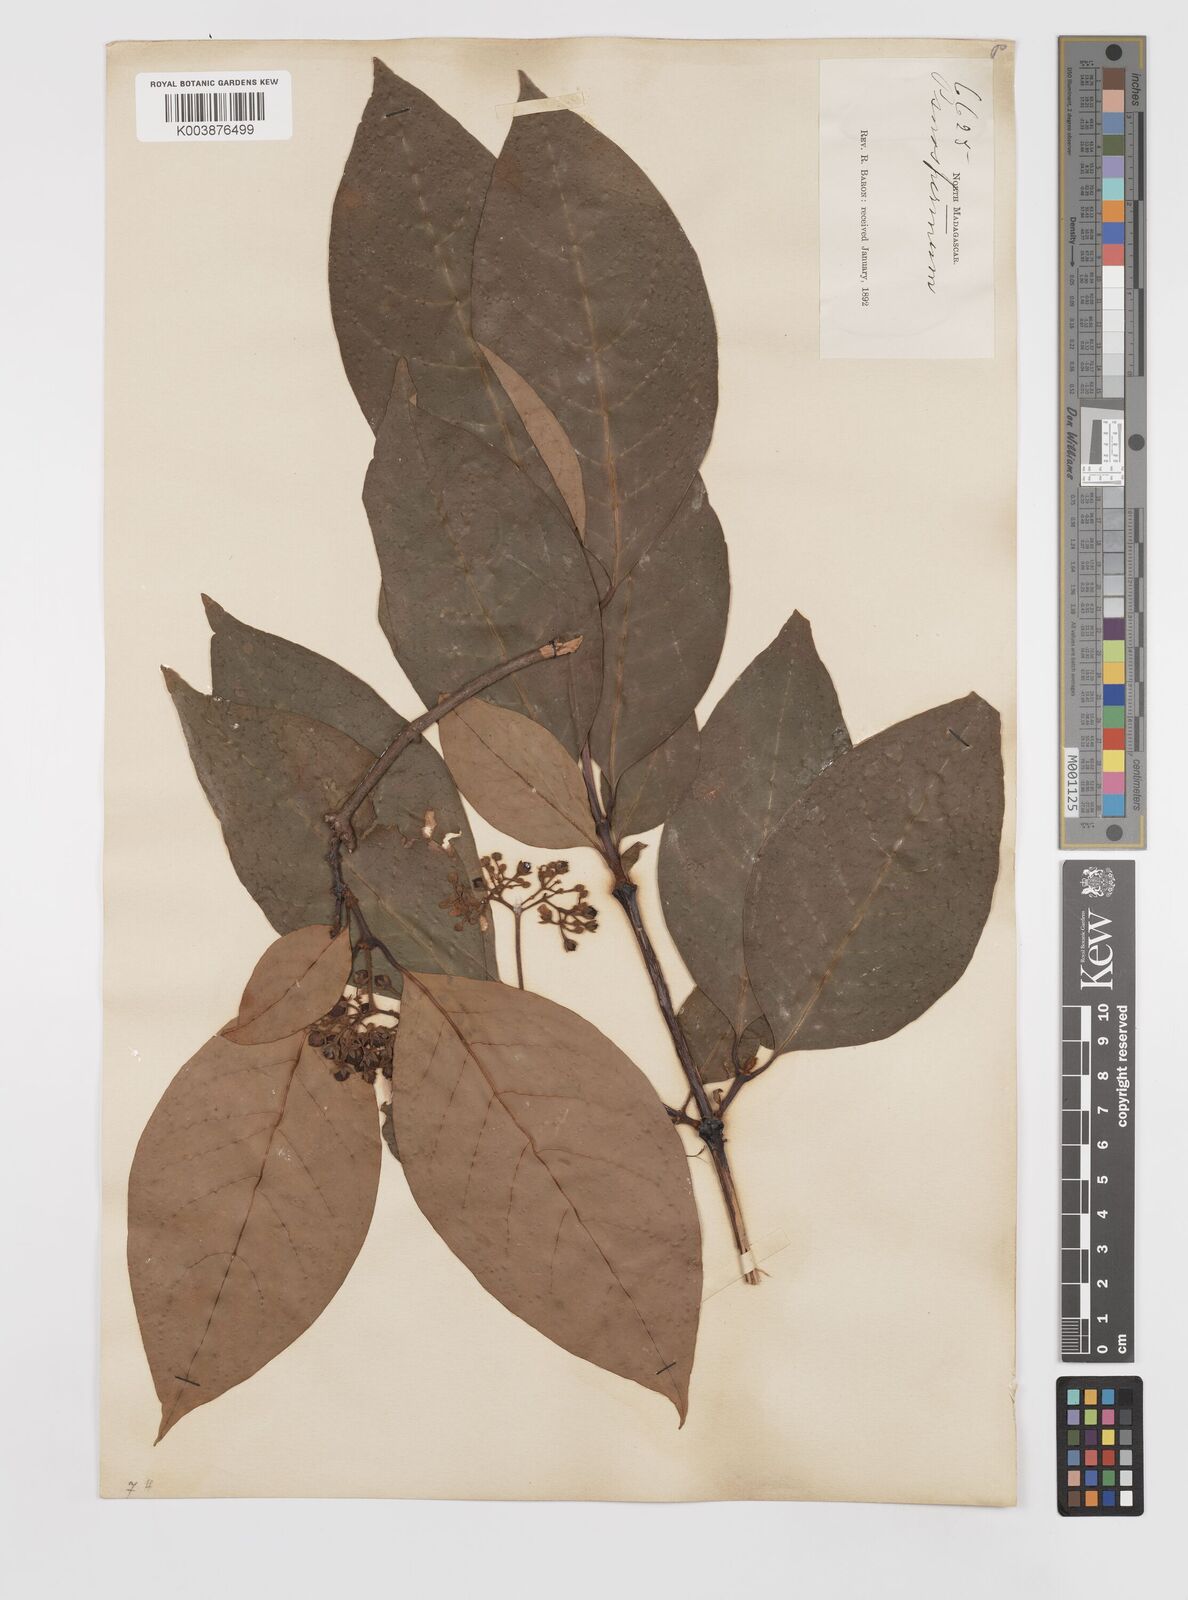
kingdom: Plantae
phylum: Tracheophyta
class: Magnoliopsida
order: Malpighiales
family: Hypericaceae
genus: Psorospermum
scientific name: Psorospermum
